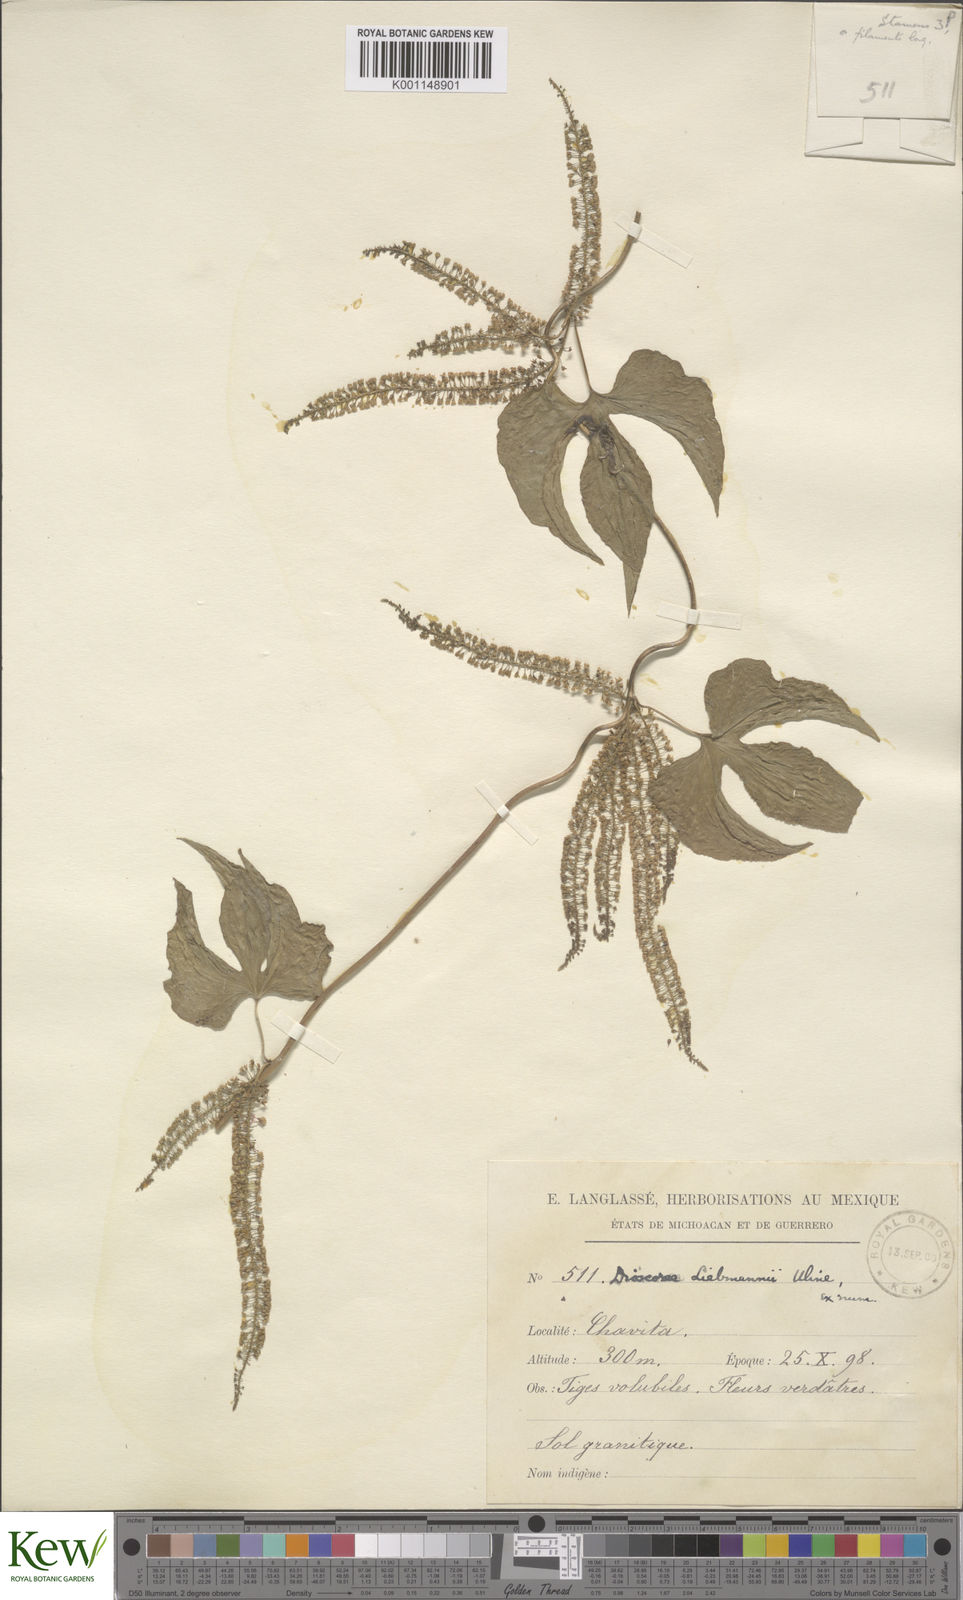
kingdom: Plantae
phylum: Tracheophyta
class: Liliopsida
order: Dioscoreales
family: Dioscoreaceae
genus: Dioscorea
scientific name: Dioscorea liebmannii
